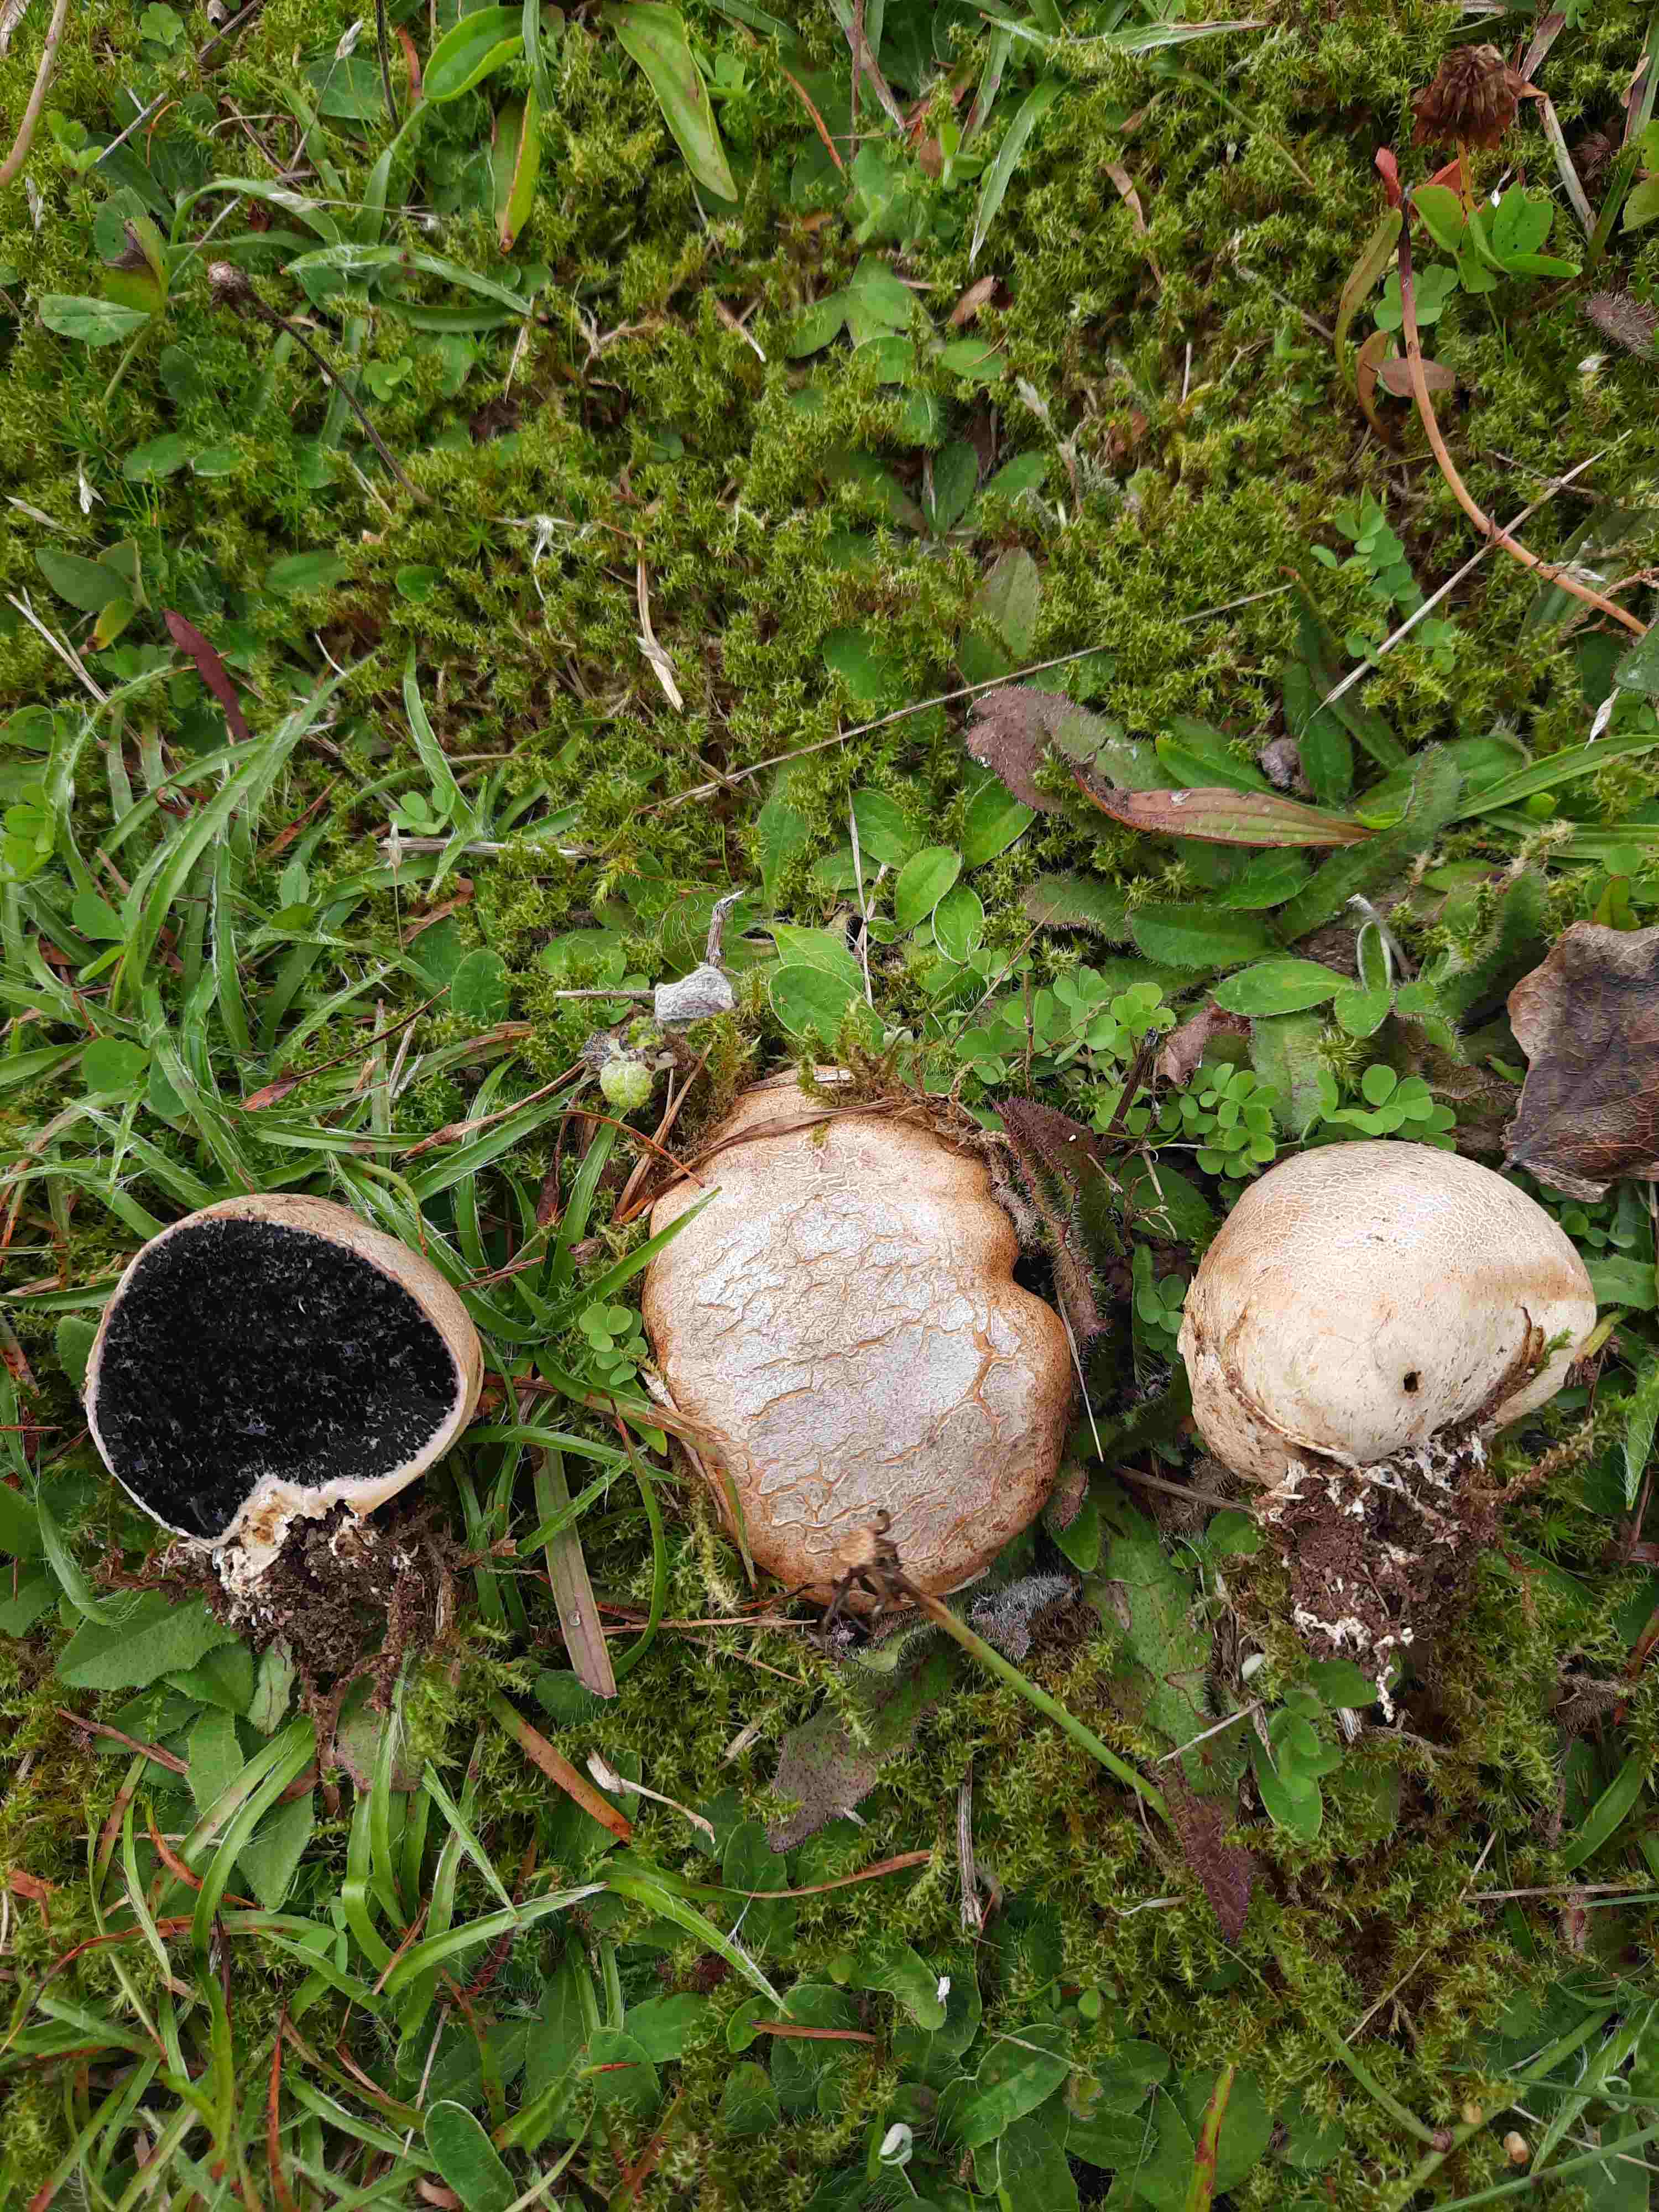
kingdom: Fungi
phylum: Basidiomycota
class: Agaricomycetes
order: Boletales
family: Sclerodermataceae
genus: Scleroderma
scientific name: Scleroderma bovista
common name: bovist-bruskbold
